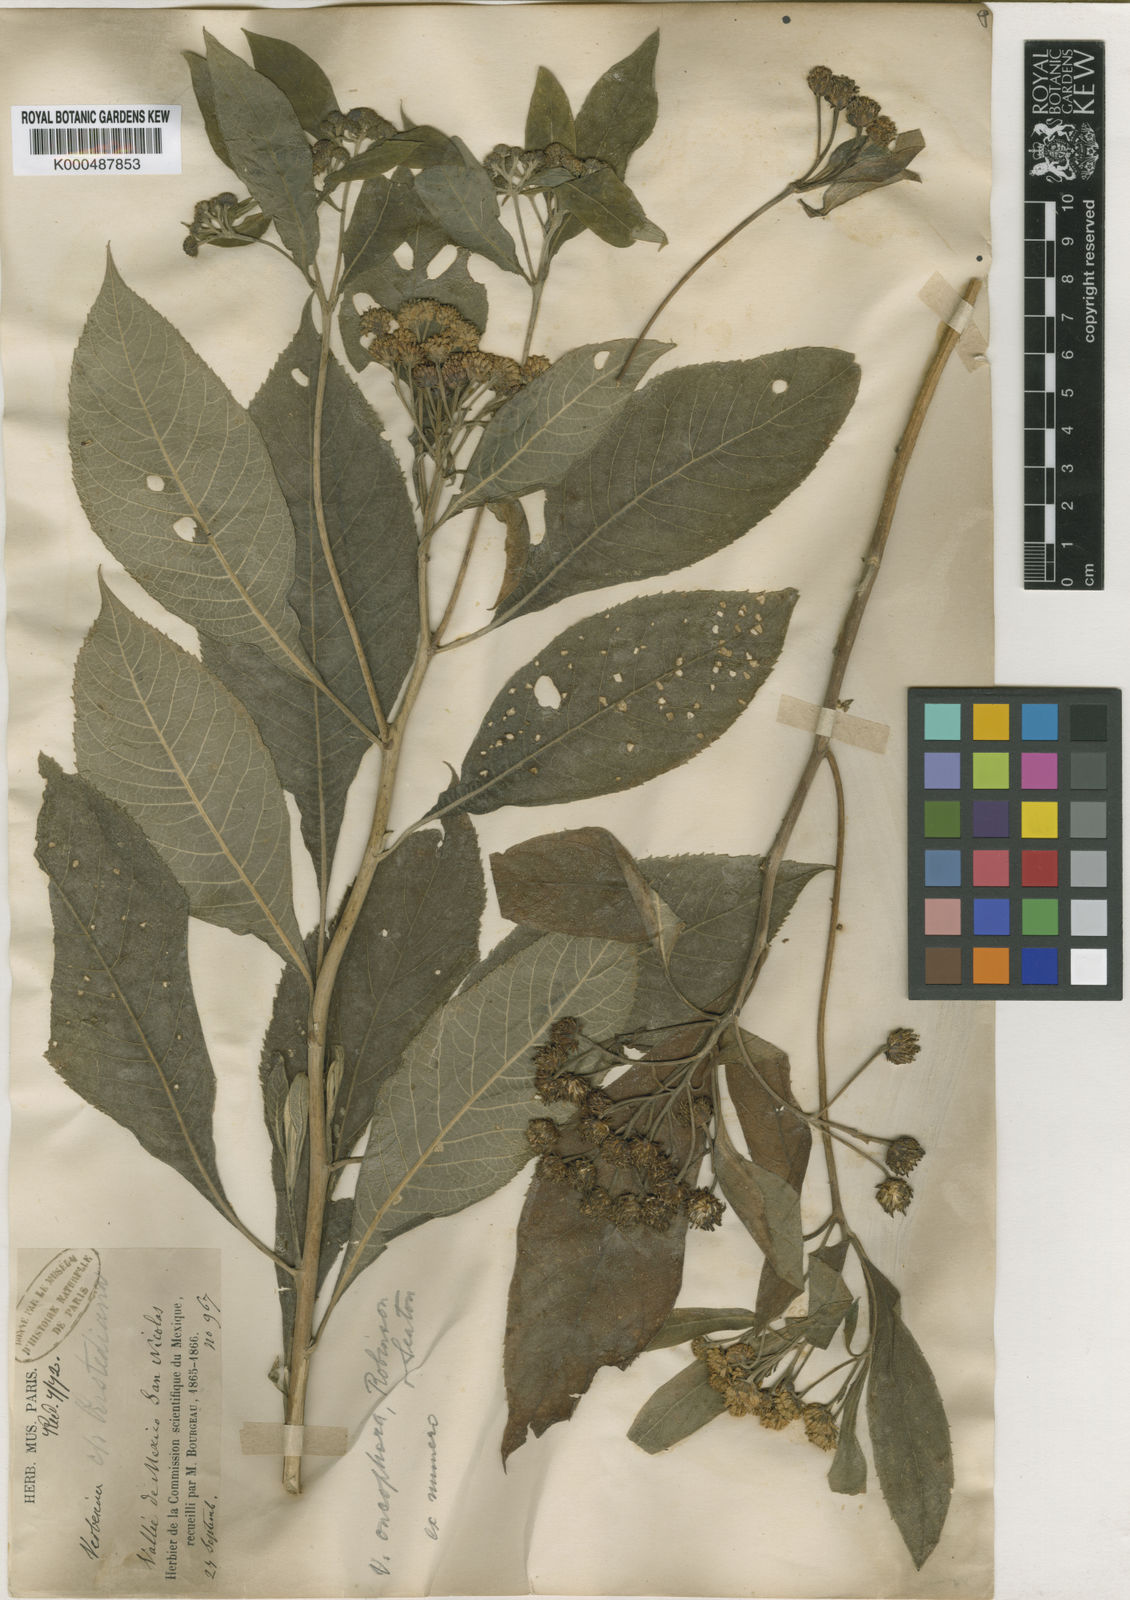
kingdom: Plantae
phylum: Tracheophyta
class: Magnoliopsida
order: Asterales
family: Asteraceae
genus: Verbesina
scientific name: Verbesina oncophora
